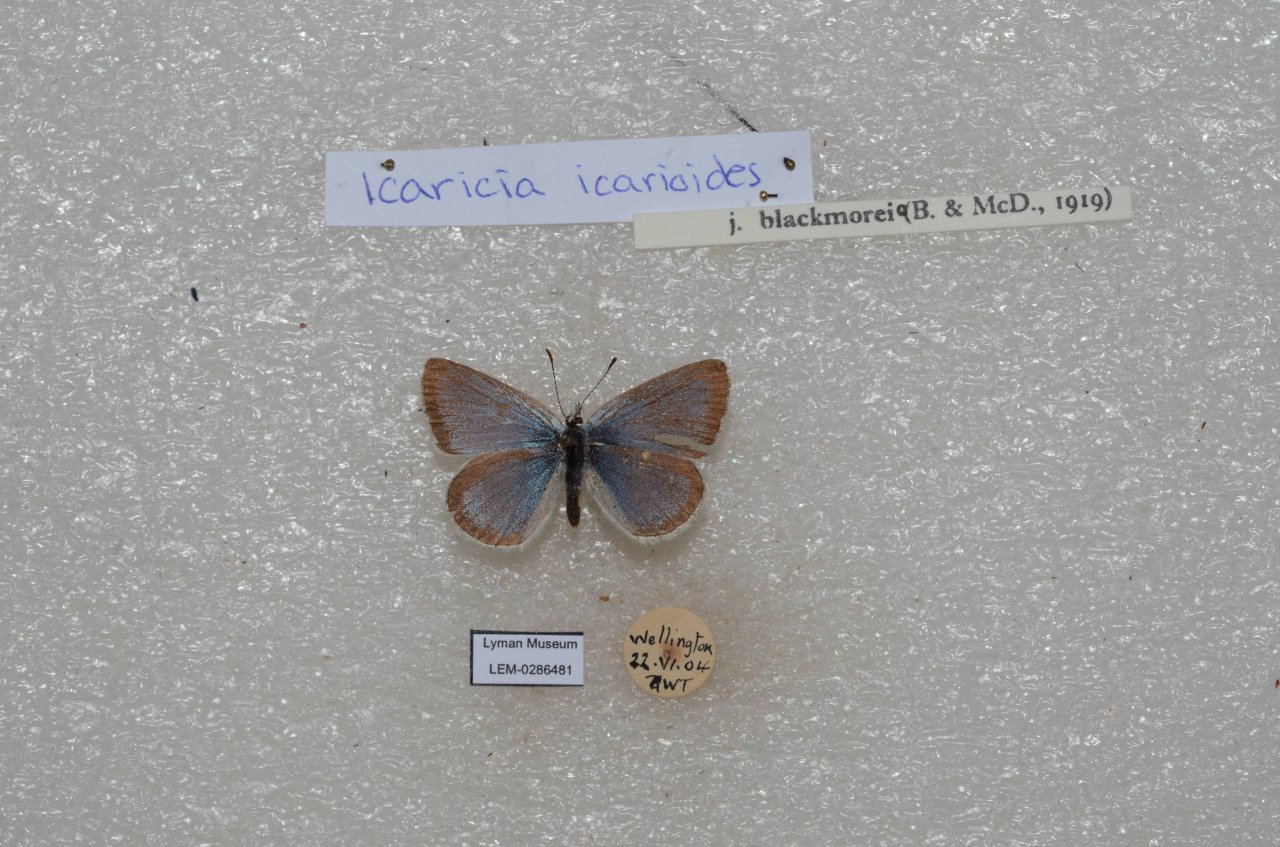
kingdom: Animalia
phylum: Arthropoda
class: Insecta
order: Lepidoptera
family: Lycaenidae
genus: Icaricia
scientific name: Icaricia icarioides
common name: Boisduval's Blue
